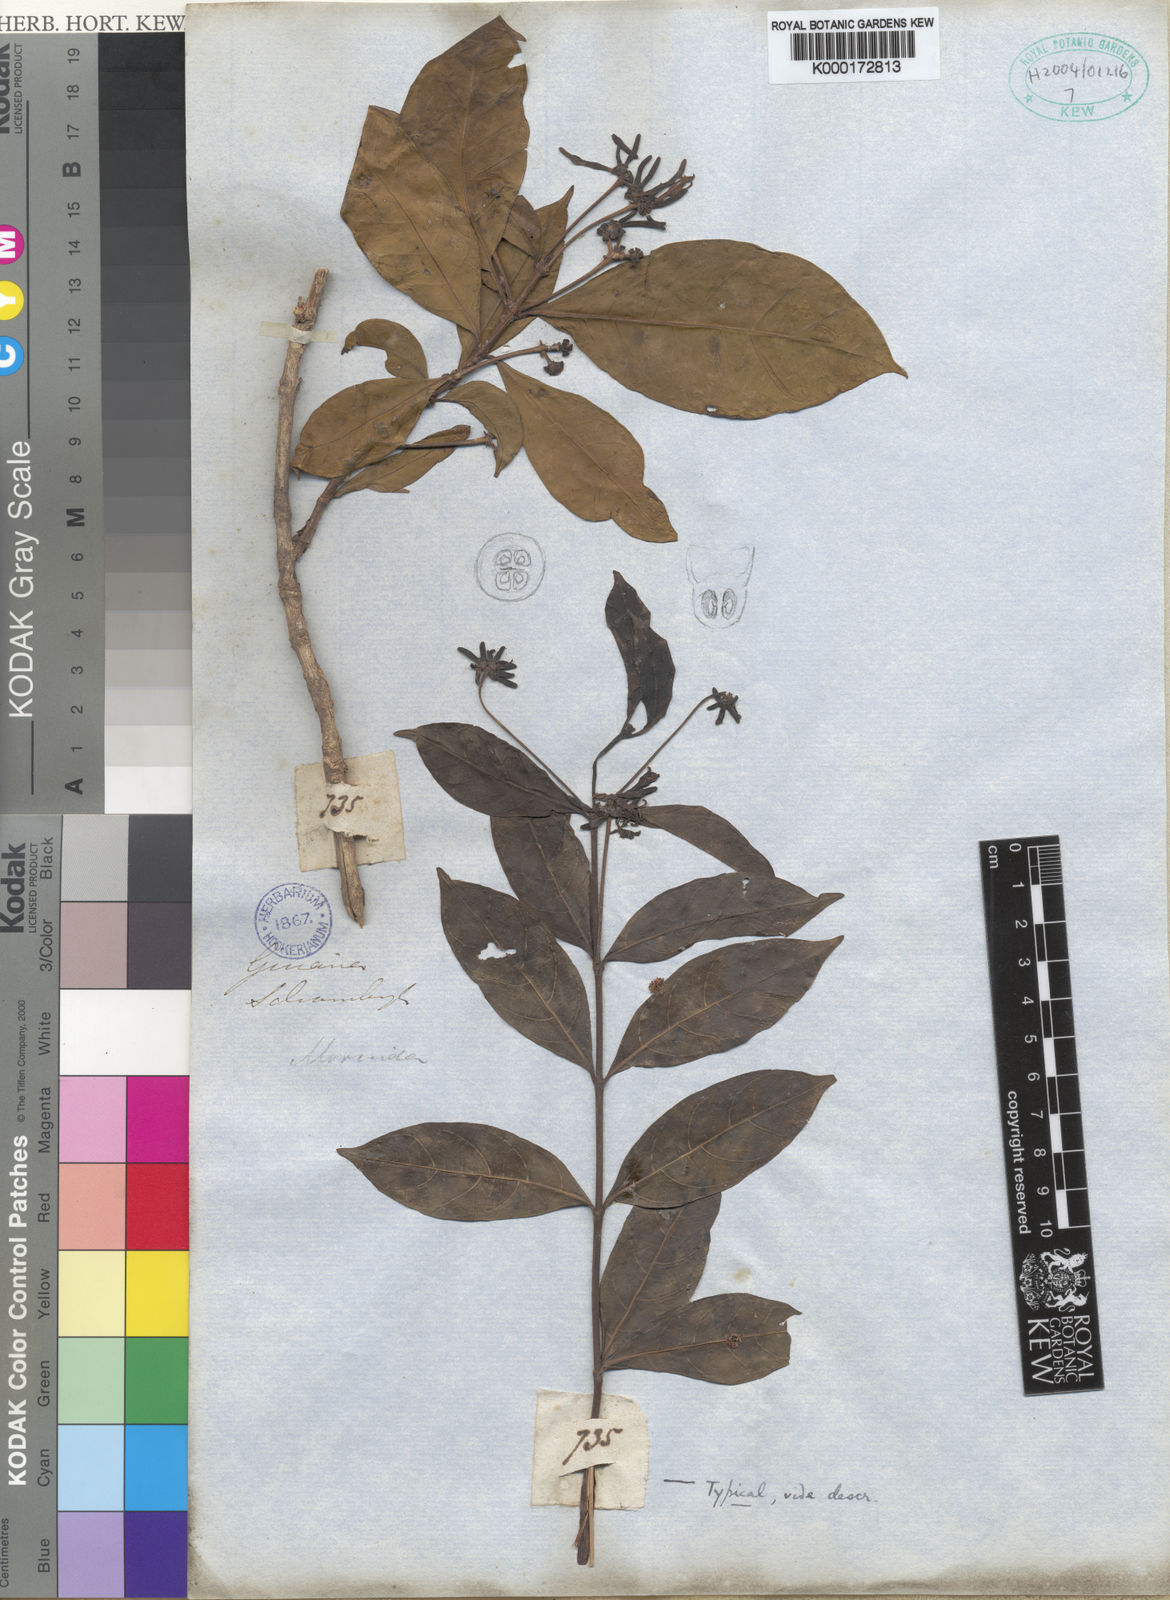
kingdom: Plantae
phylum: Tracheophyta
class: Magnoliopsida
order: Gentianales
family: Rubiaceae
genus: Appunia
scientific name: Appunia tenuiflora
